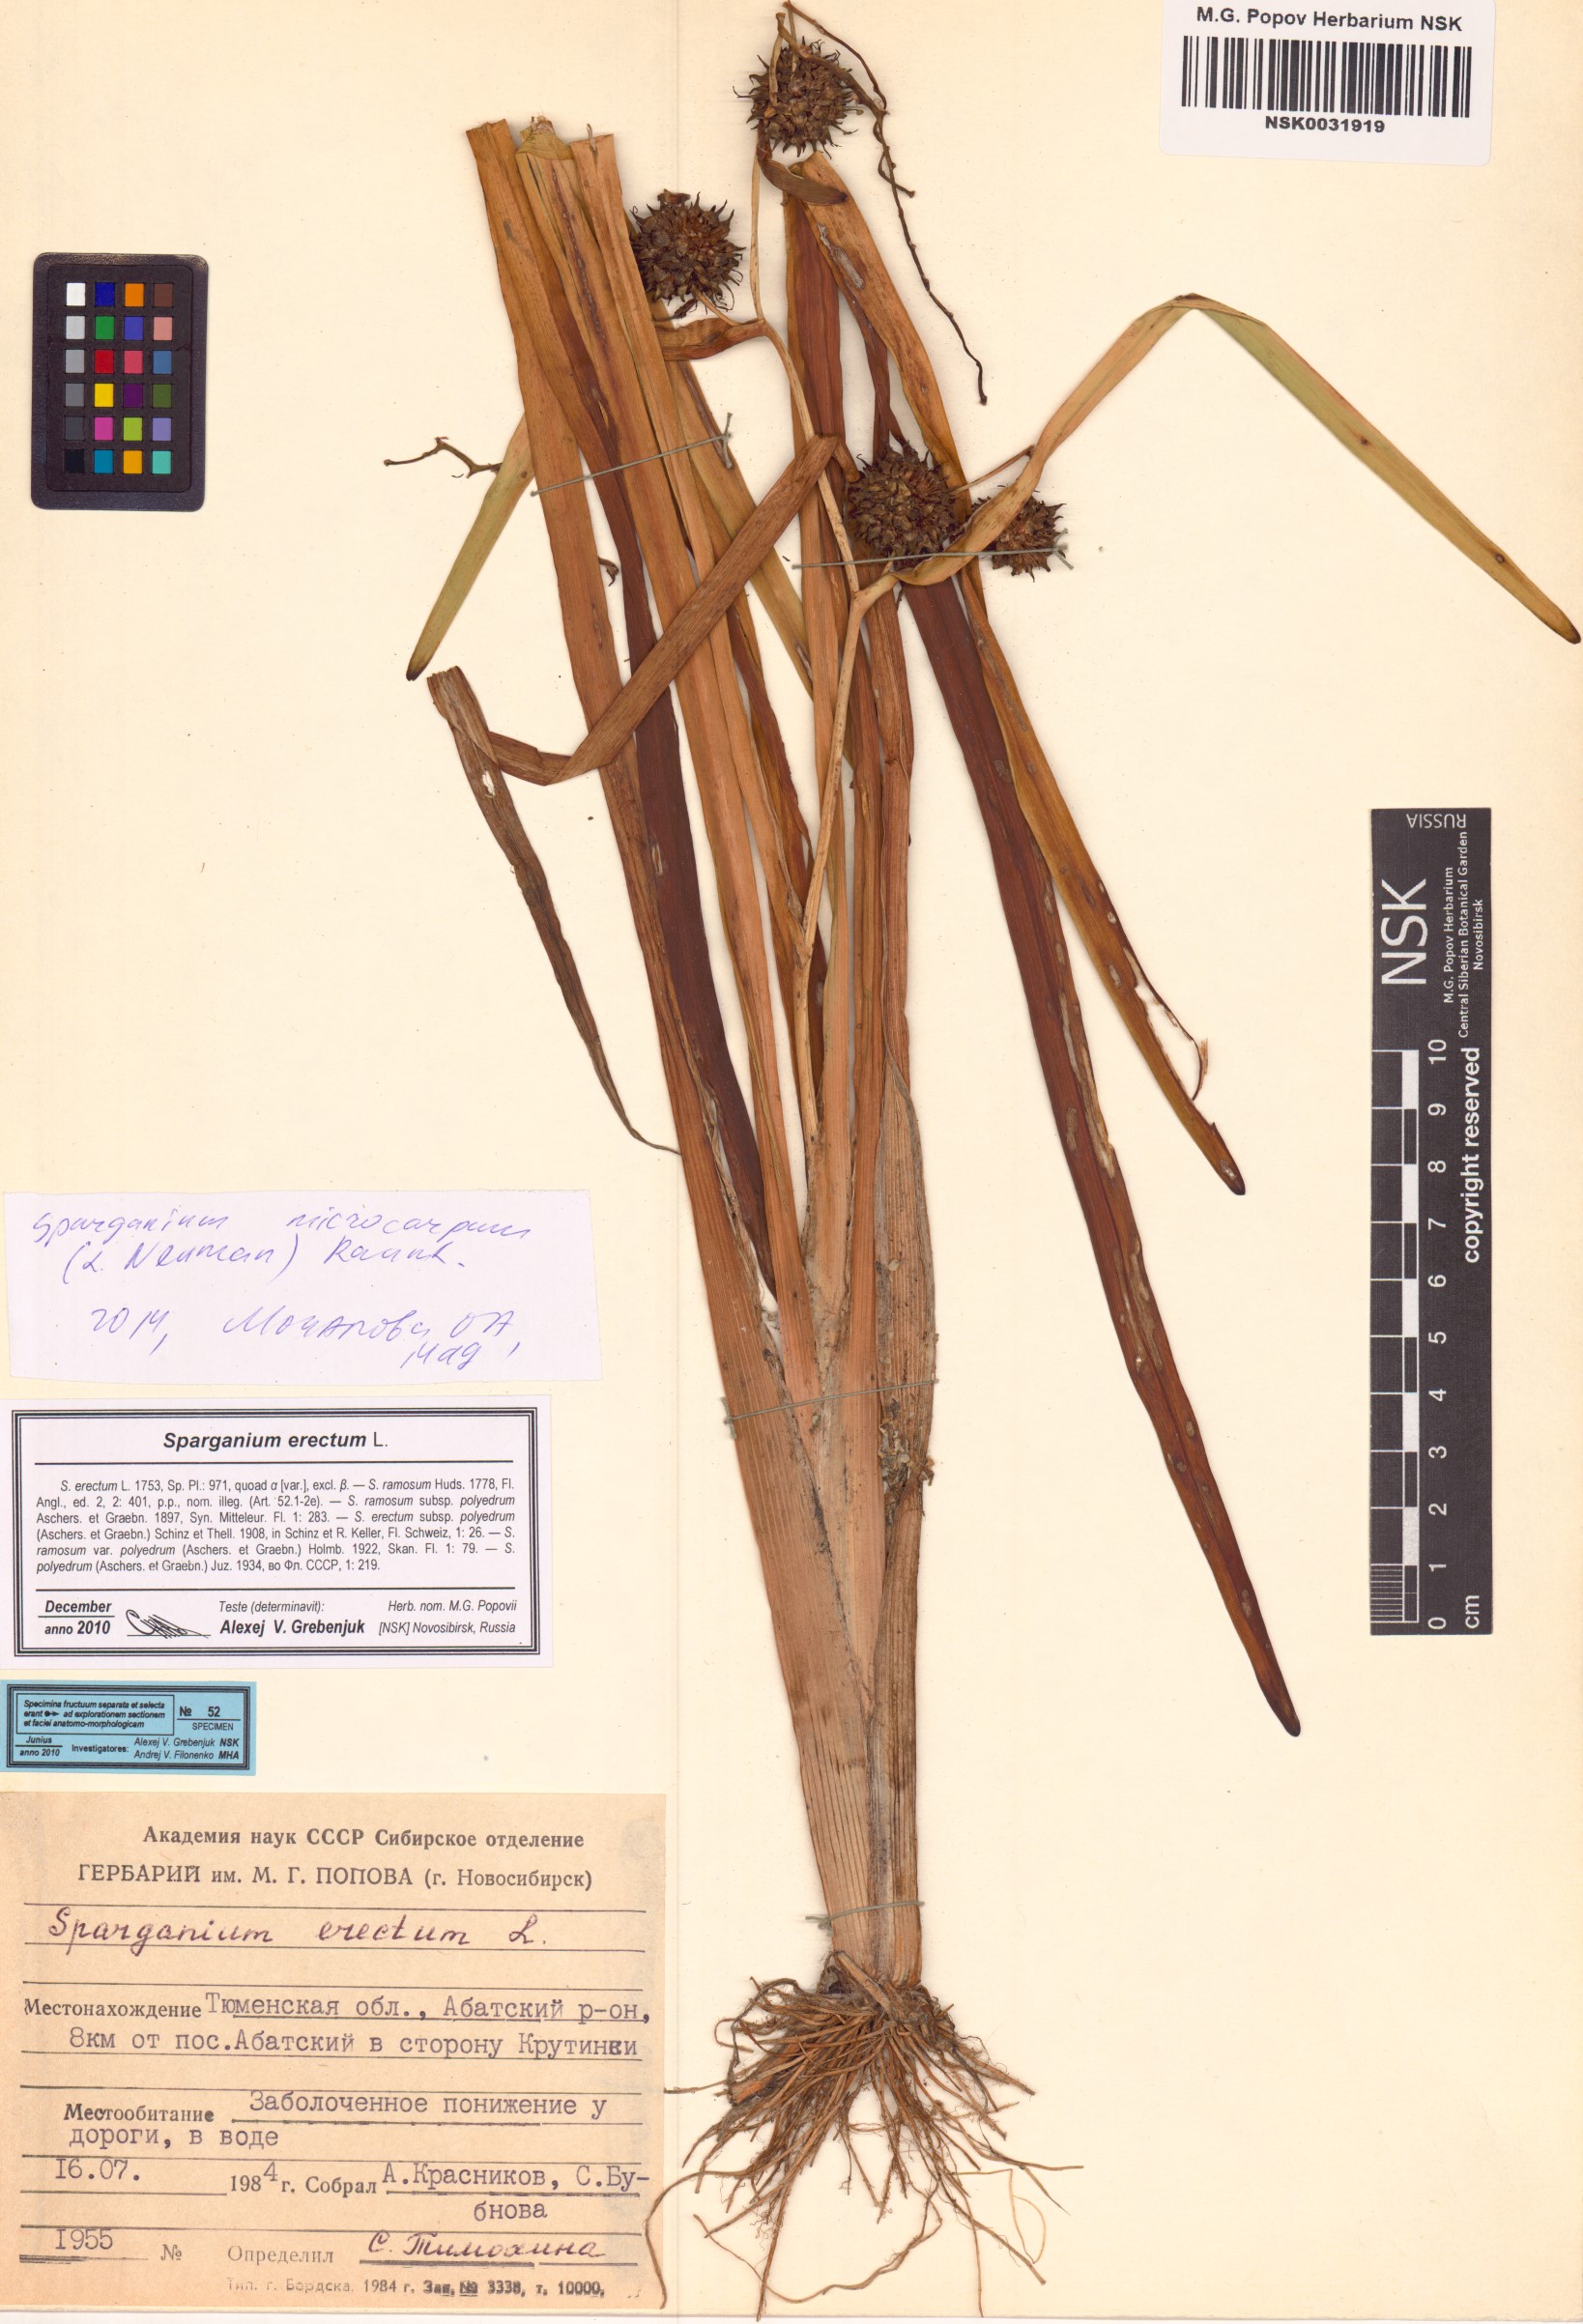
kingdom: Plantae
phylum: Tracheophyta
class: Liliopsida
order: Poales
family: Typhaceae
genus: Sparganium
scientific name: Sparganium erectum
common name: Branched bur-reed
